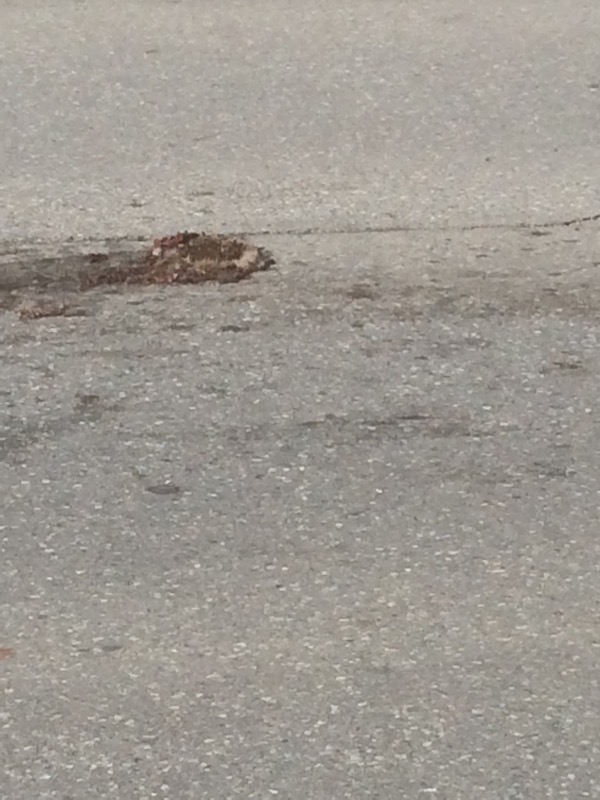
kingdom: Animalia
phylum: Chordata
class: Mammalia
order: Erinaceomorpha
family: Erinaceidae
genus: Erinaceus
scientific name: Erinaceus
